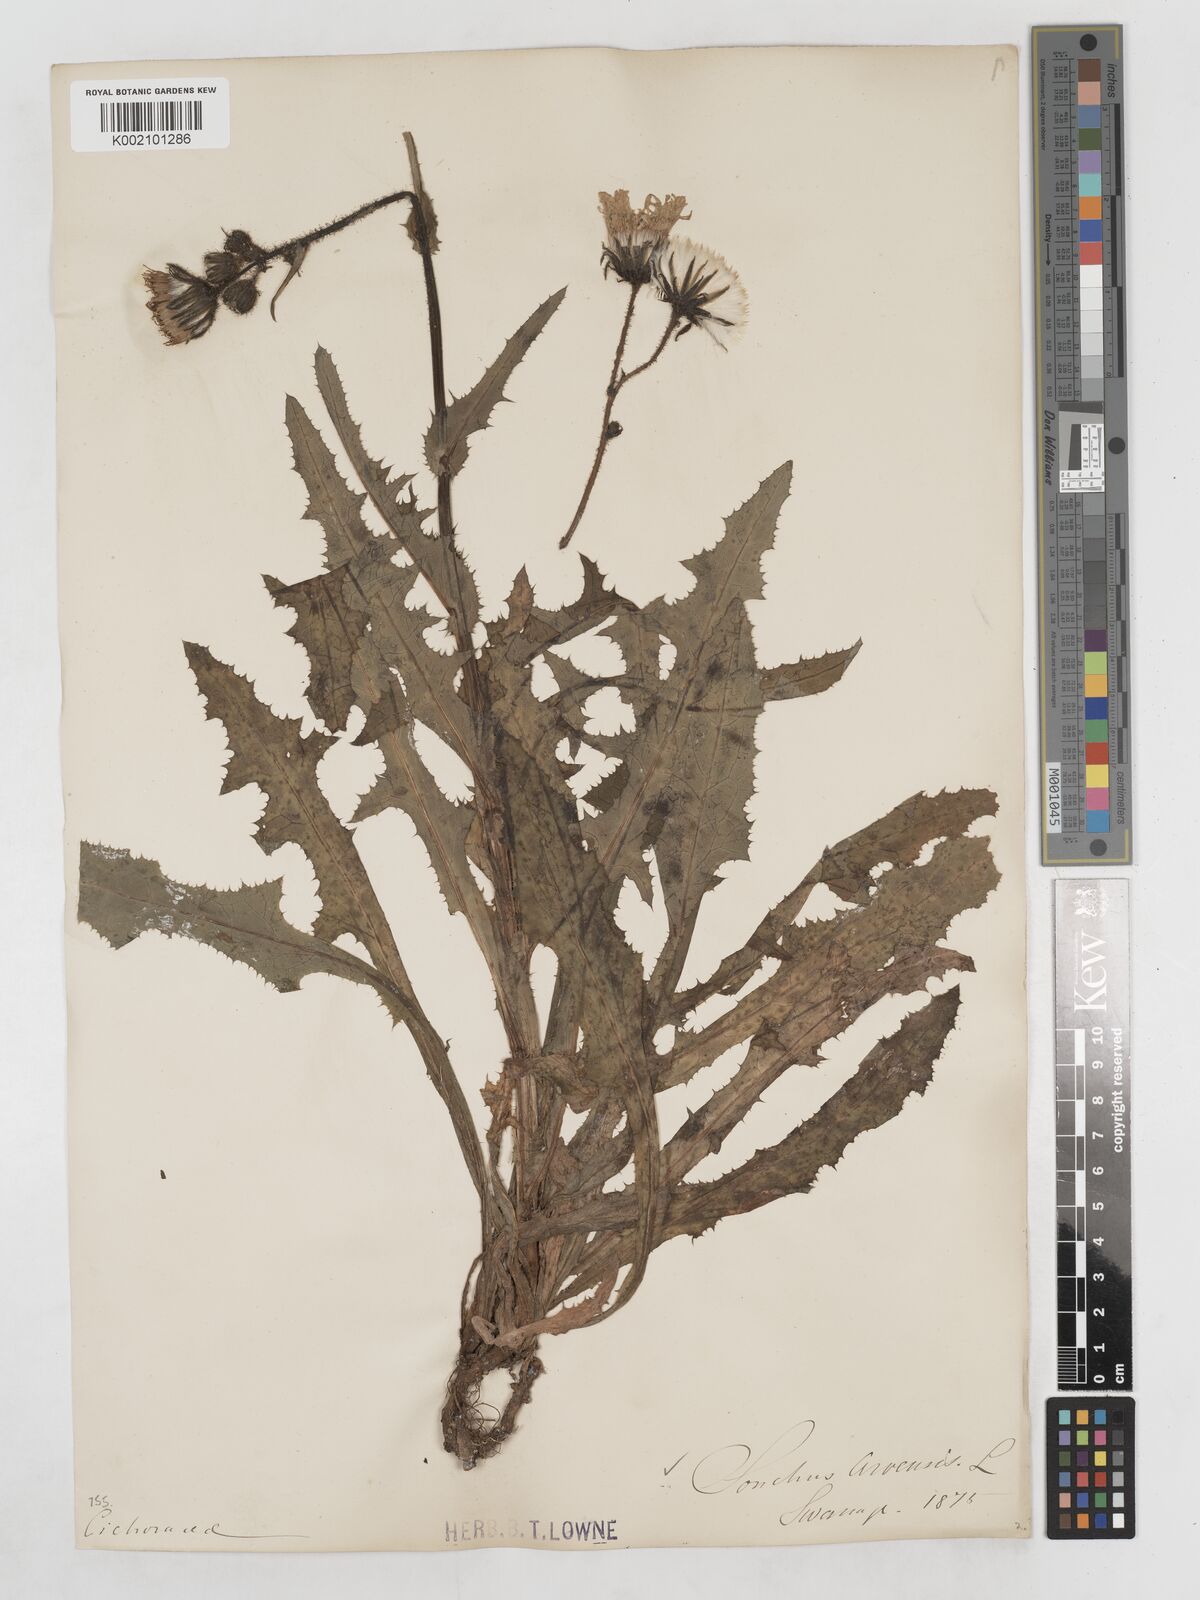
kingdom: Plantae
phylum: Tracheophyta
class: Magnoliopsida
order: Asterales
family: Asteraceae
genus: Sonchus
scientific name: Sonchus arvensis
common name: Perennial sow-thistle
